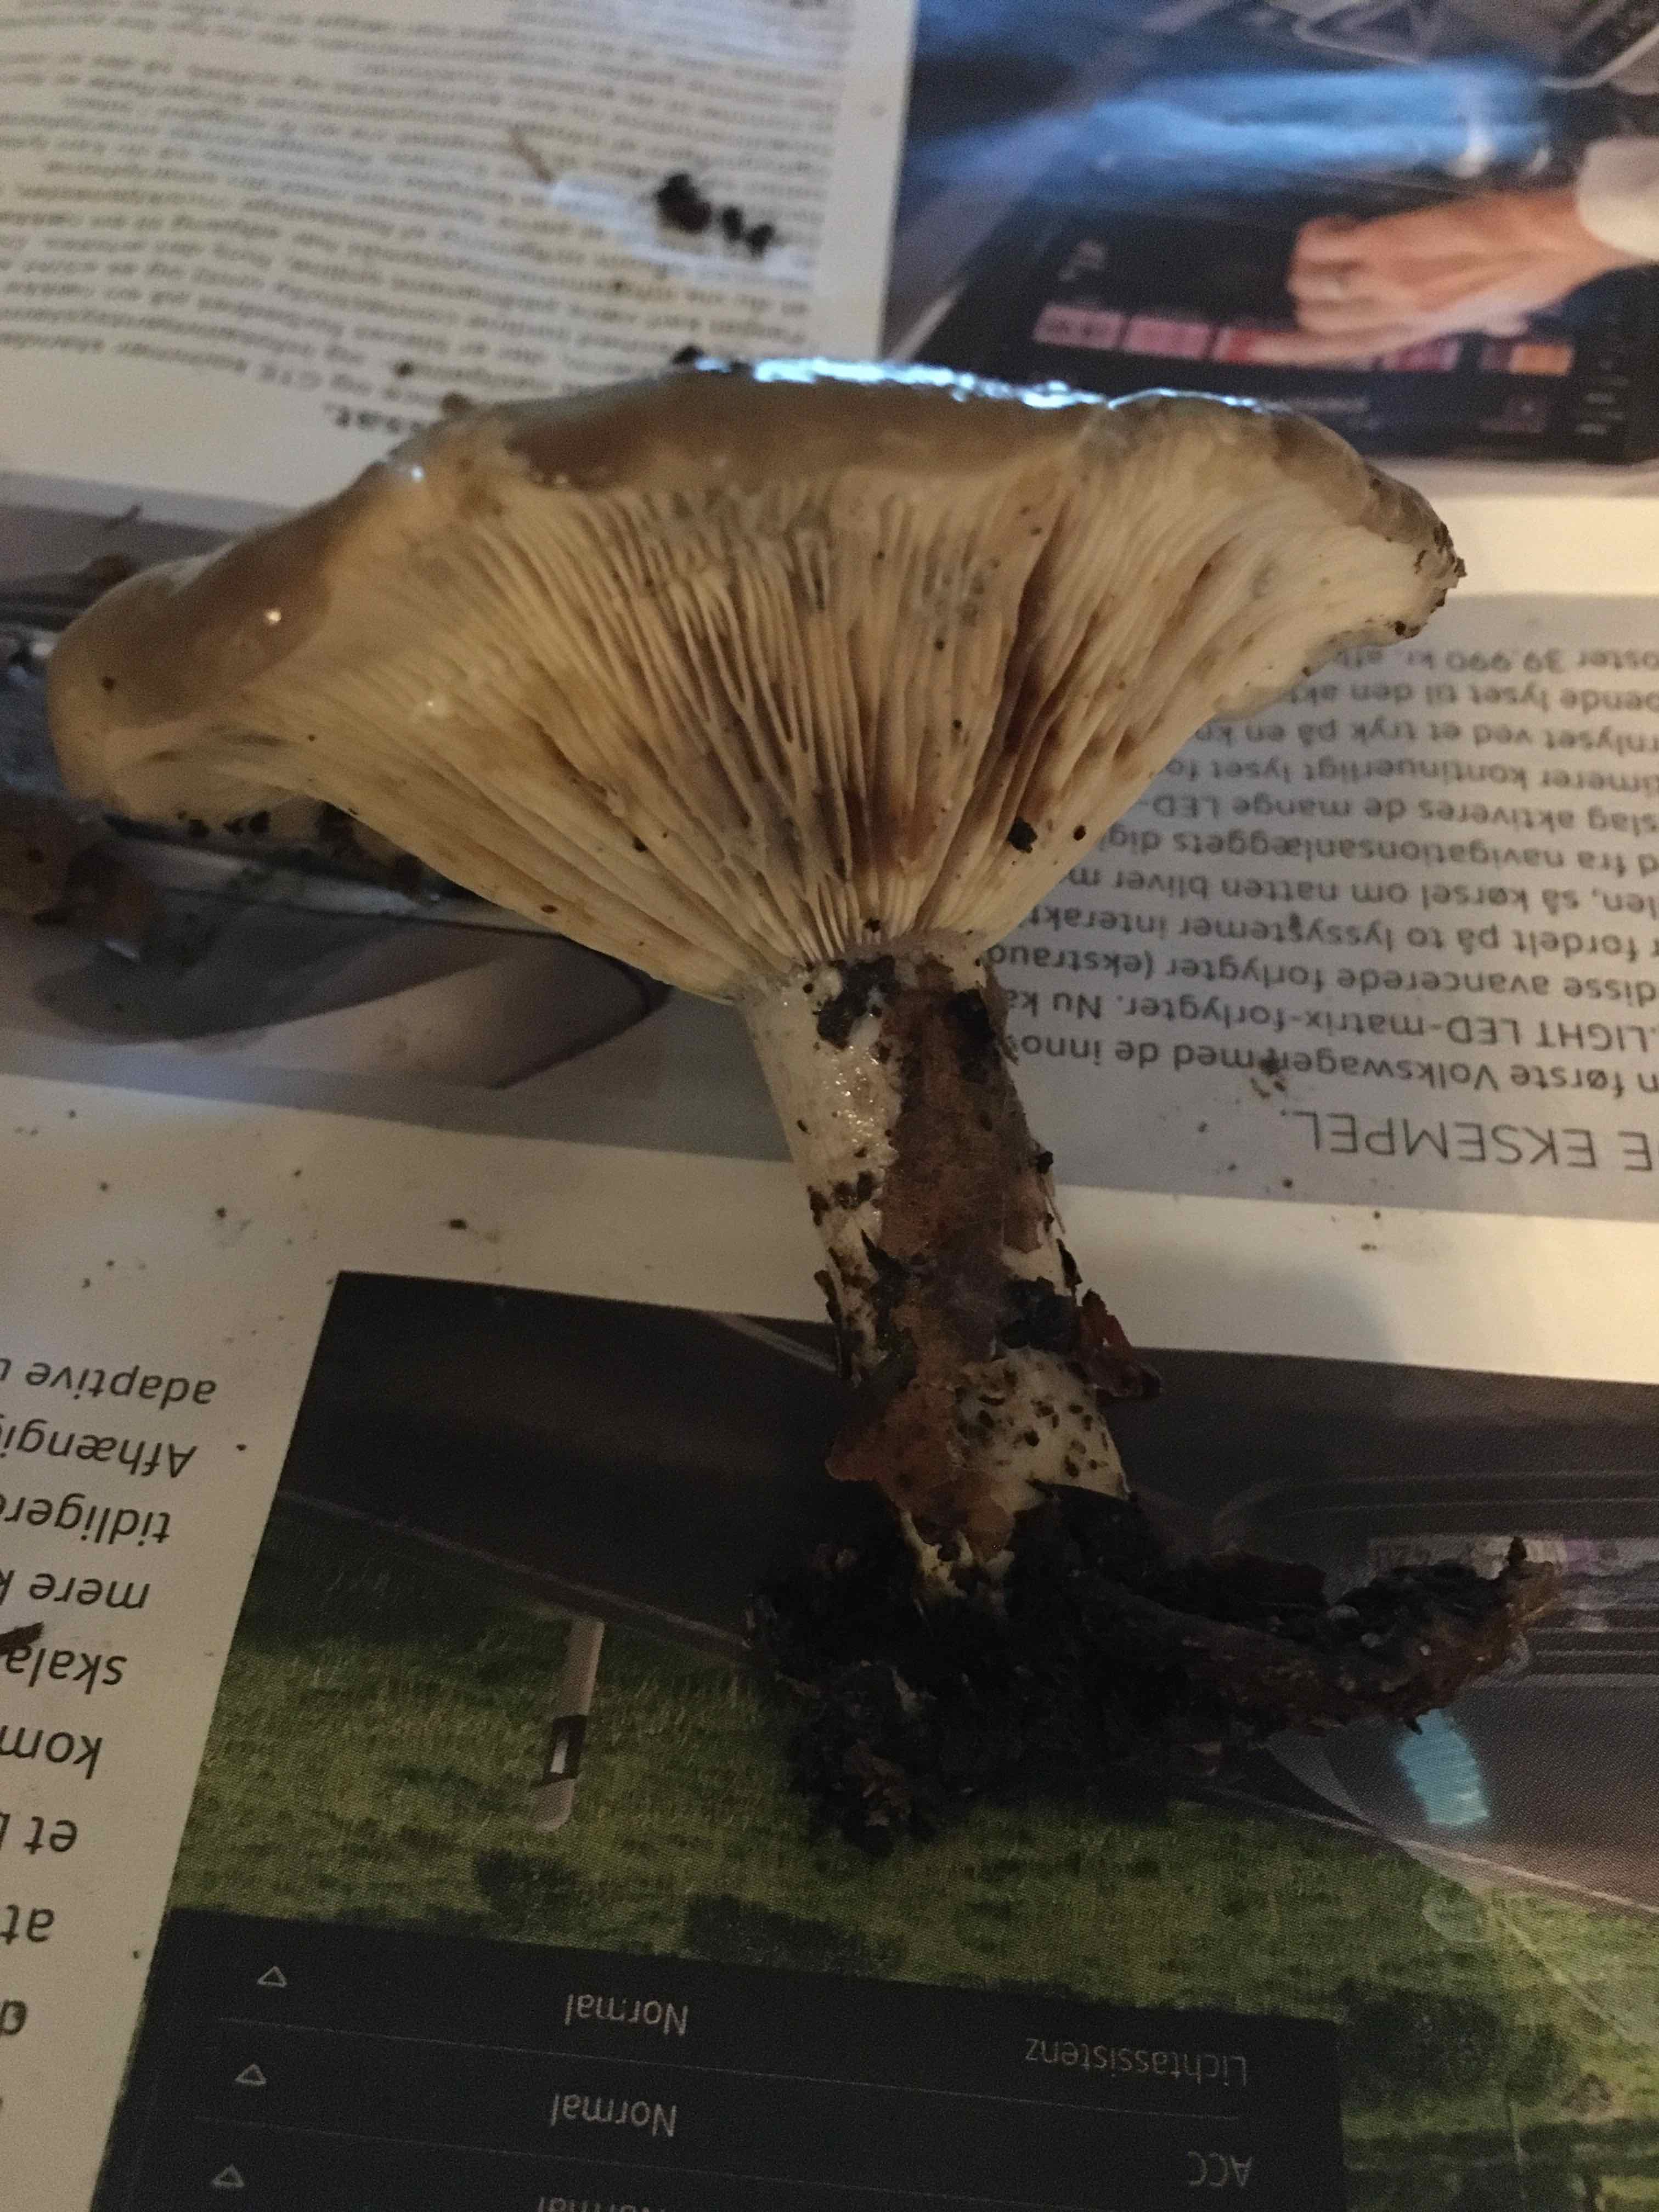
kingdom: Fungi
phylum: Basidiomycota
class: Agaricomycetes
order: Russulales
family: Russulaceae
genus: Lactarius
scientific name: Lactarius blennius
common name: dråbeplettet mælkehat
